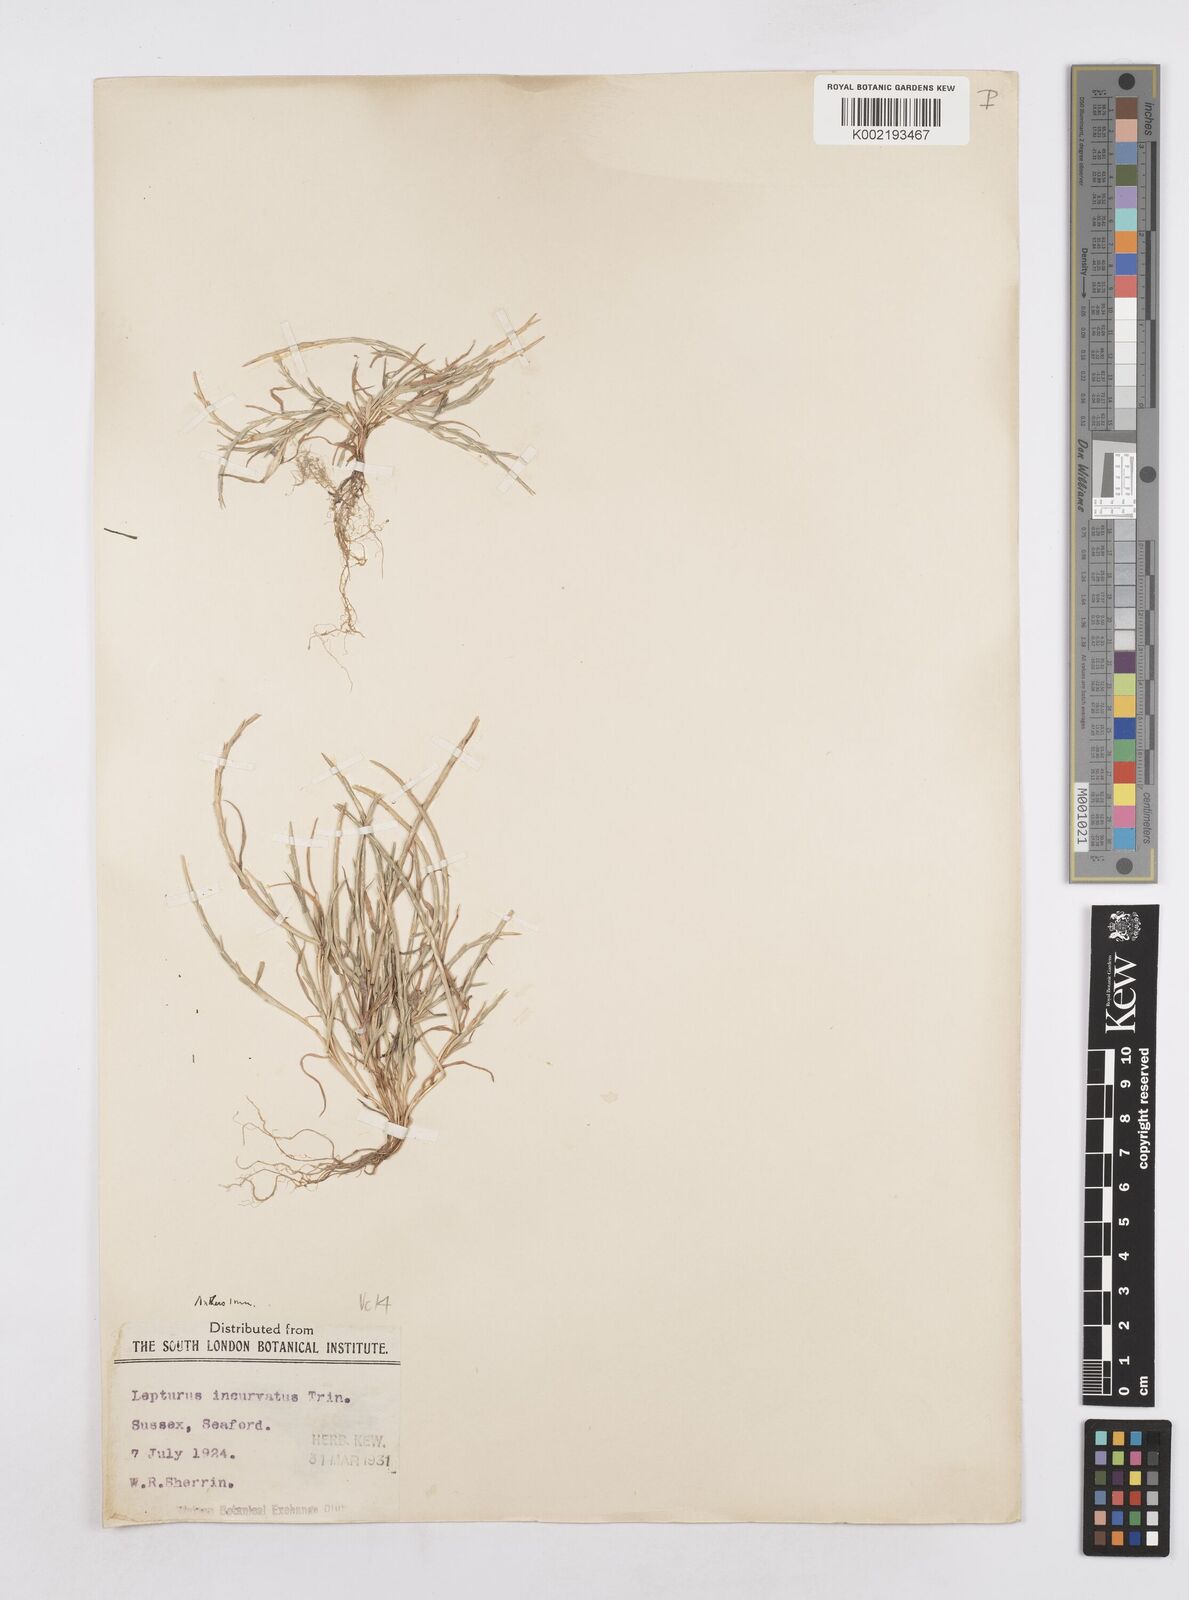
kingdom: Plantae
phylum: Tracheophyta
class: Liliopsida
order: Poales
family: Poaceae
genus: Parapholis
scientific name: Parapholis incurva
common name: Curved sicklegrass
